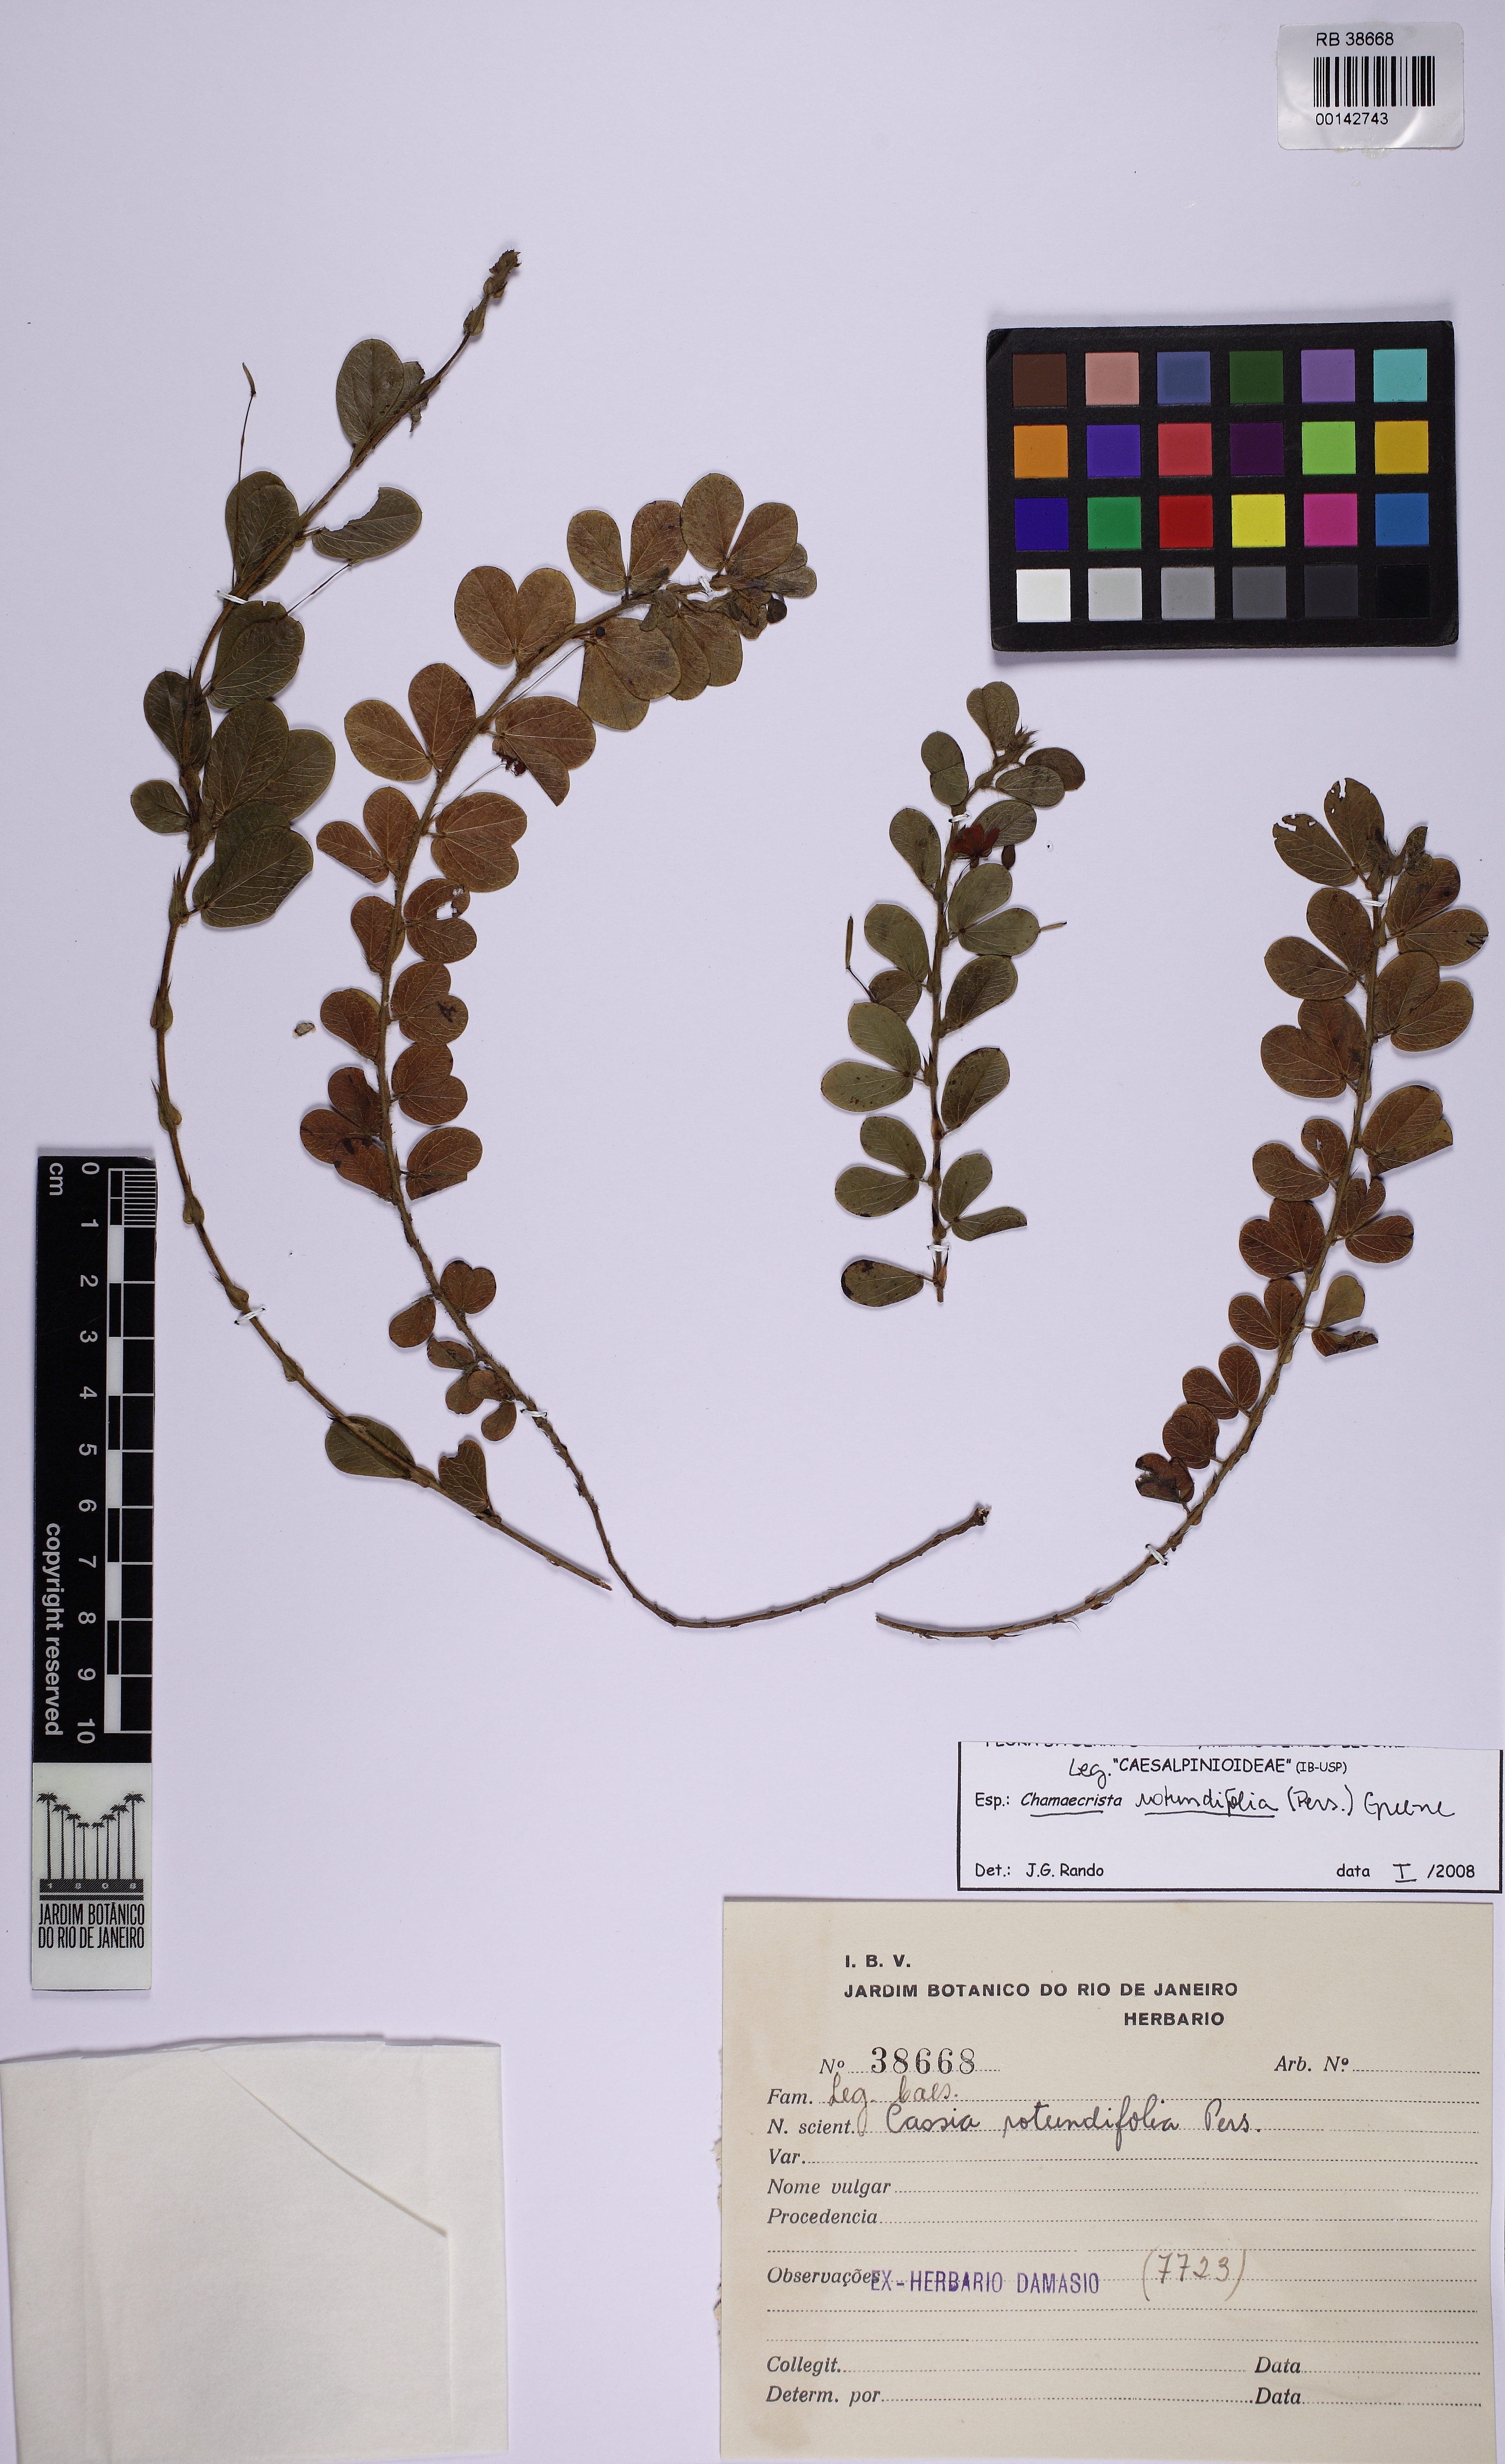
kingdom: Plantae
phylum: Tracheophyta
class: Magnoliopsida
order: Fabales
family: Fabaceae
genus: Chamaecrista
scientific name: Chamaecrista rotundifolia
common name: Round-leaf cassia
